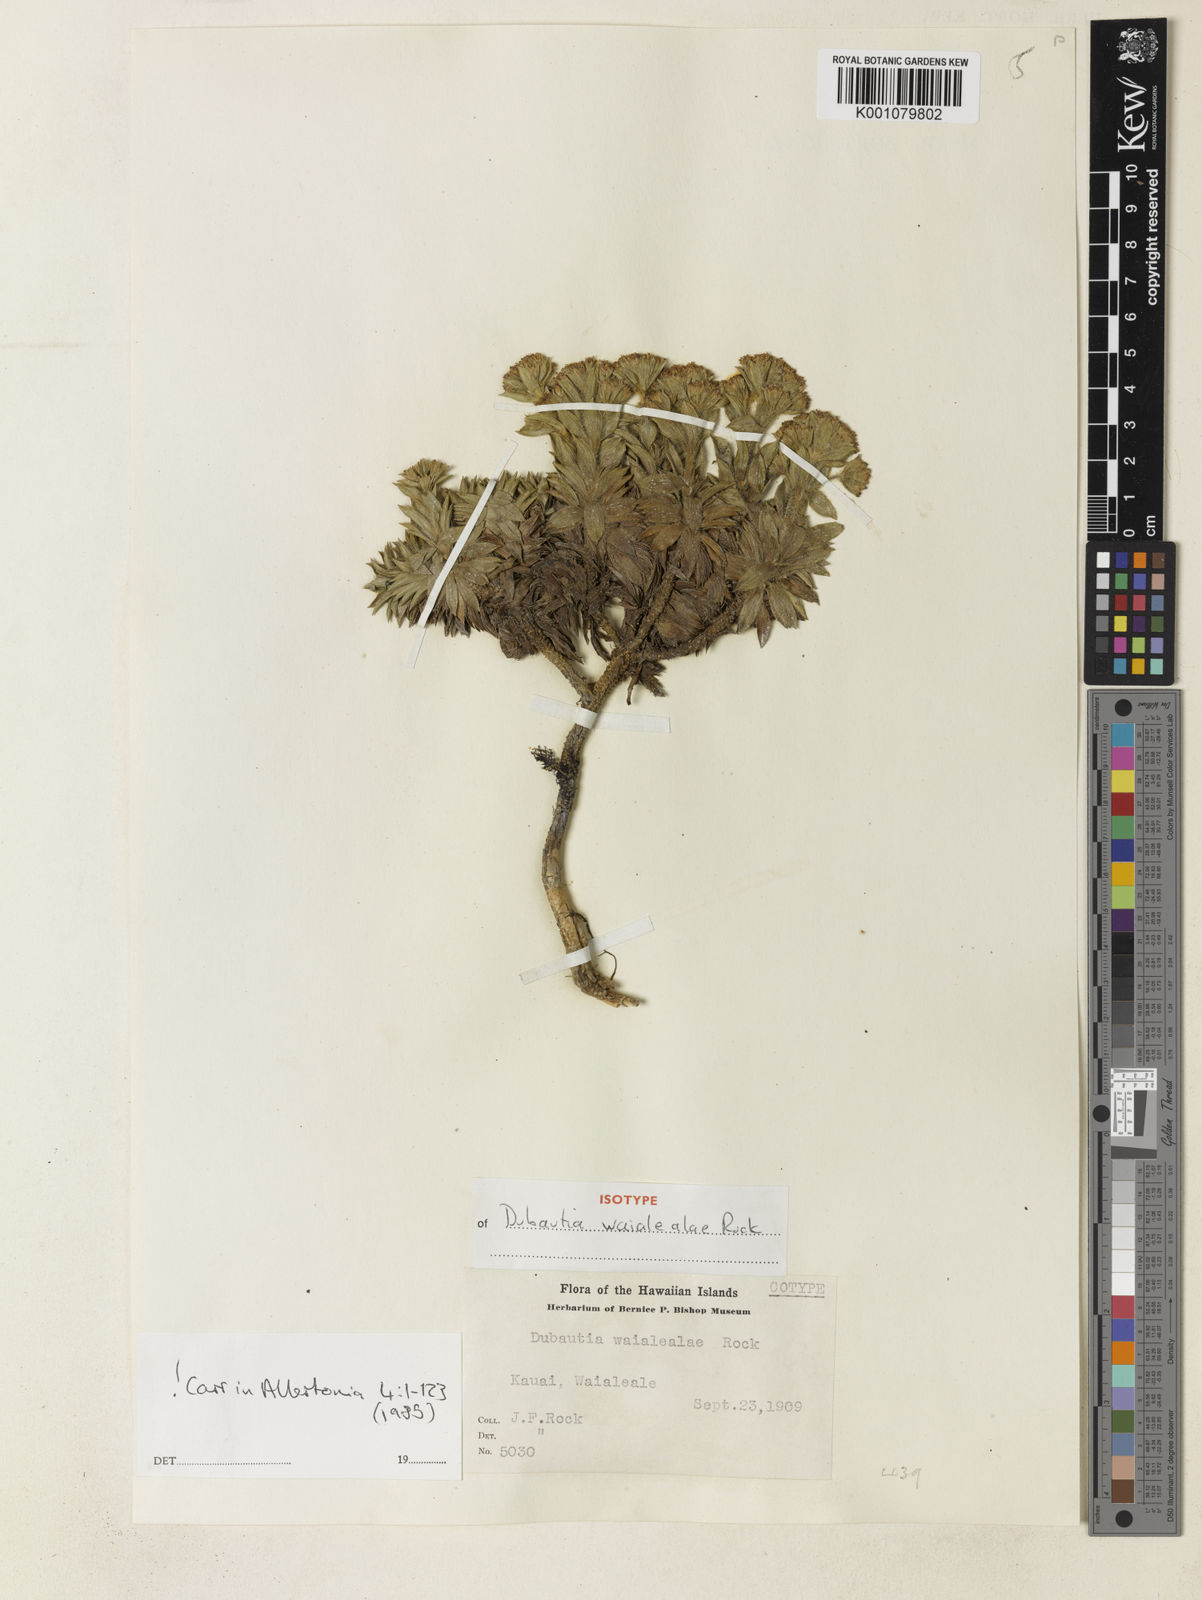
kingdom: Plantae
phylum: Tracheophyta
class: Magnoliopsida
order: Asterales
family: Asteraceae
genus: Dubautia
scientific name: Dubautia waialealae
